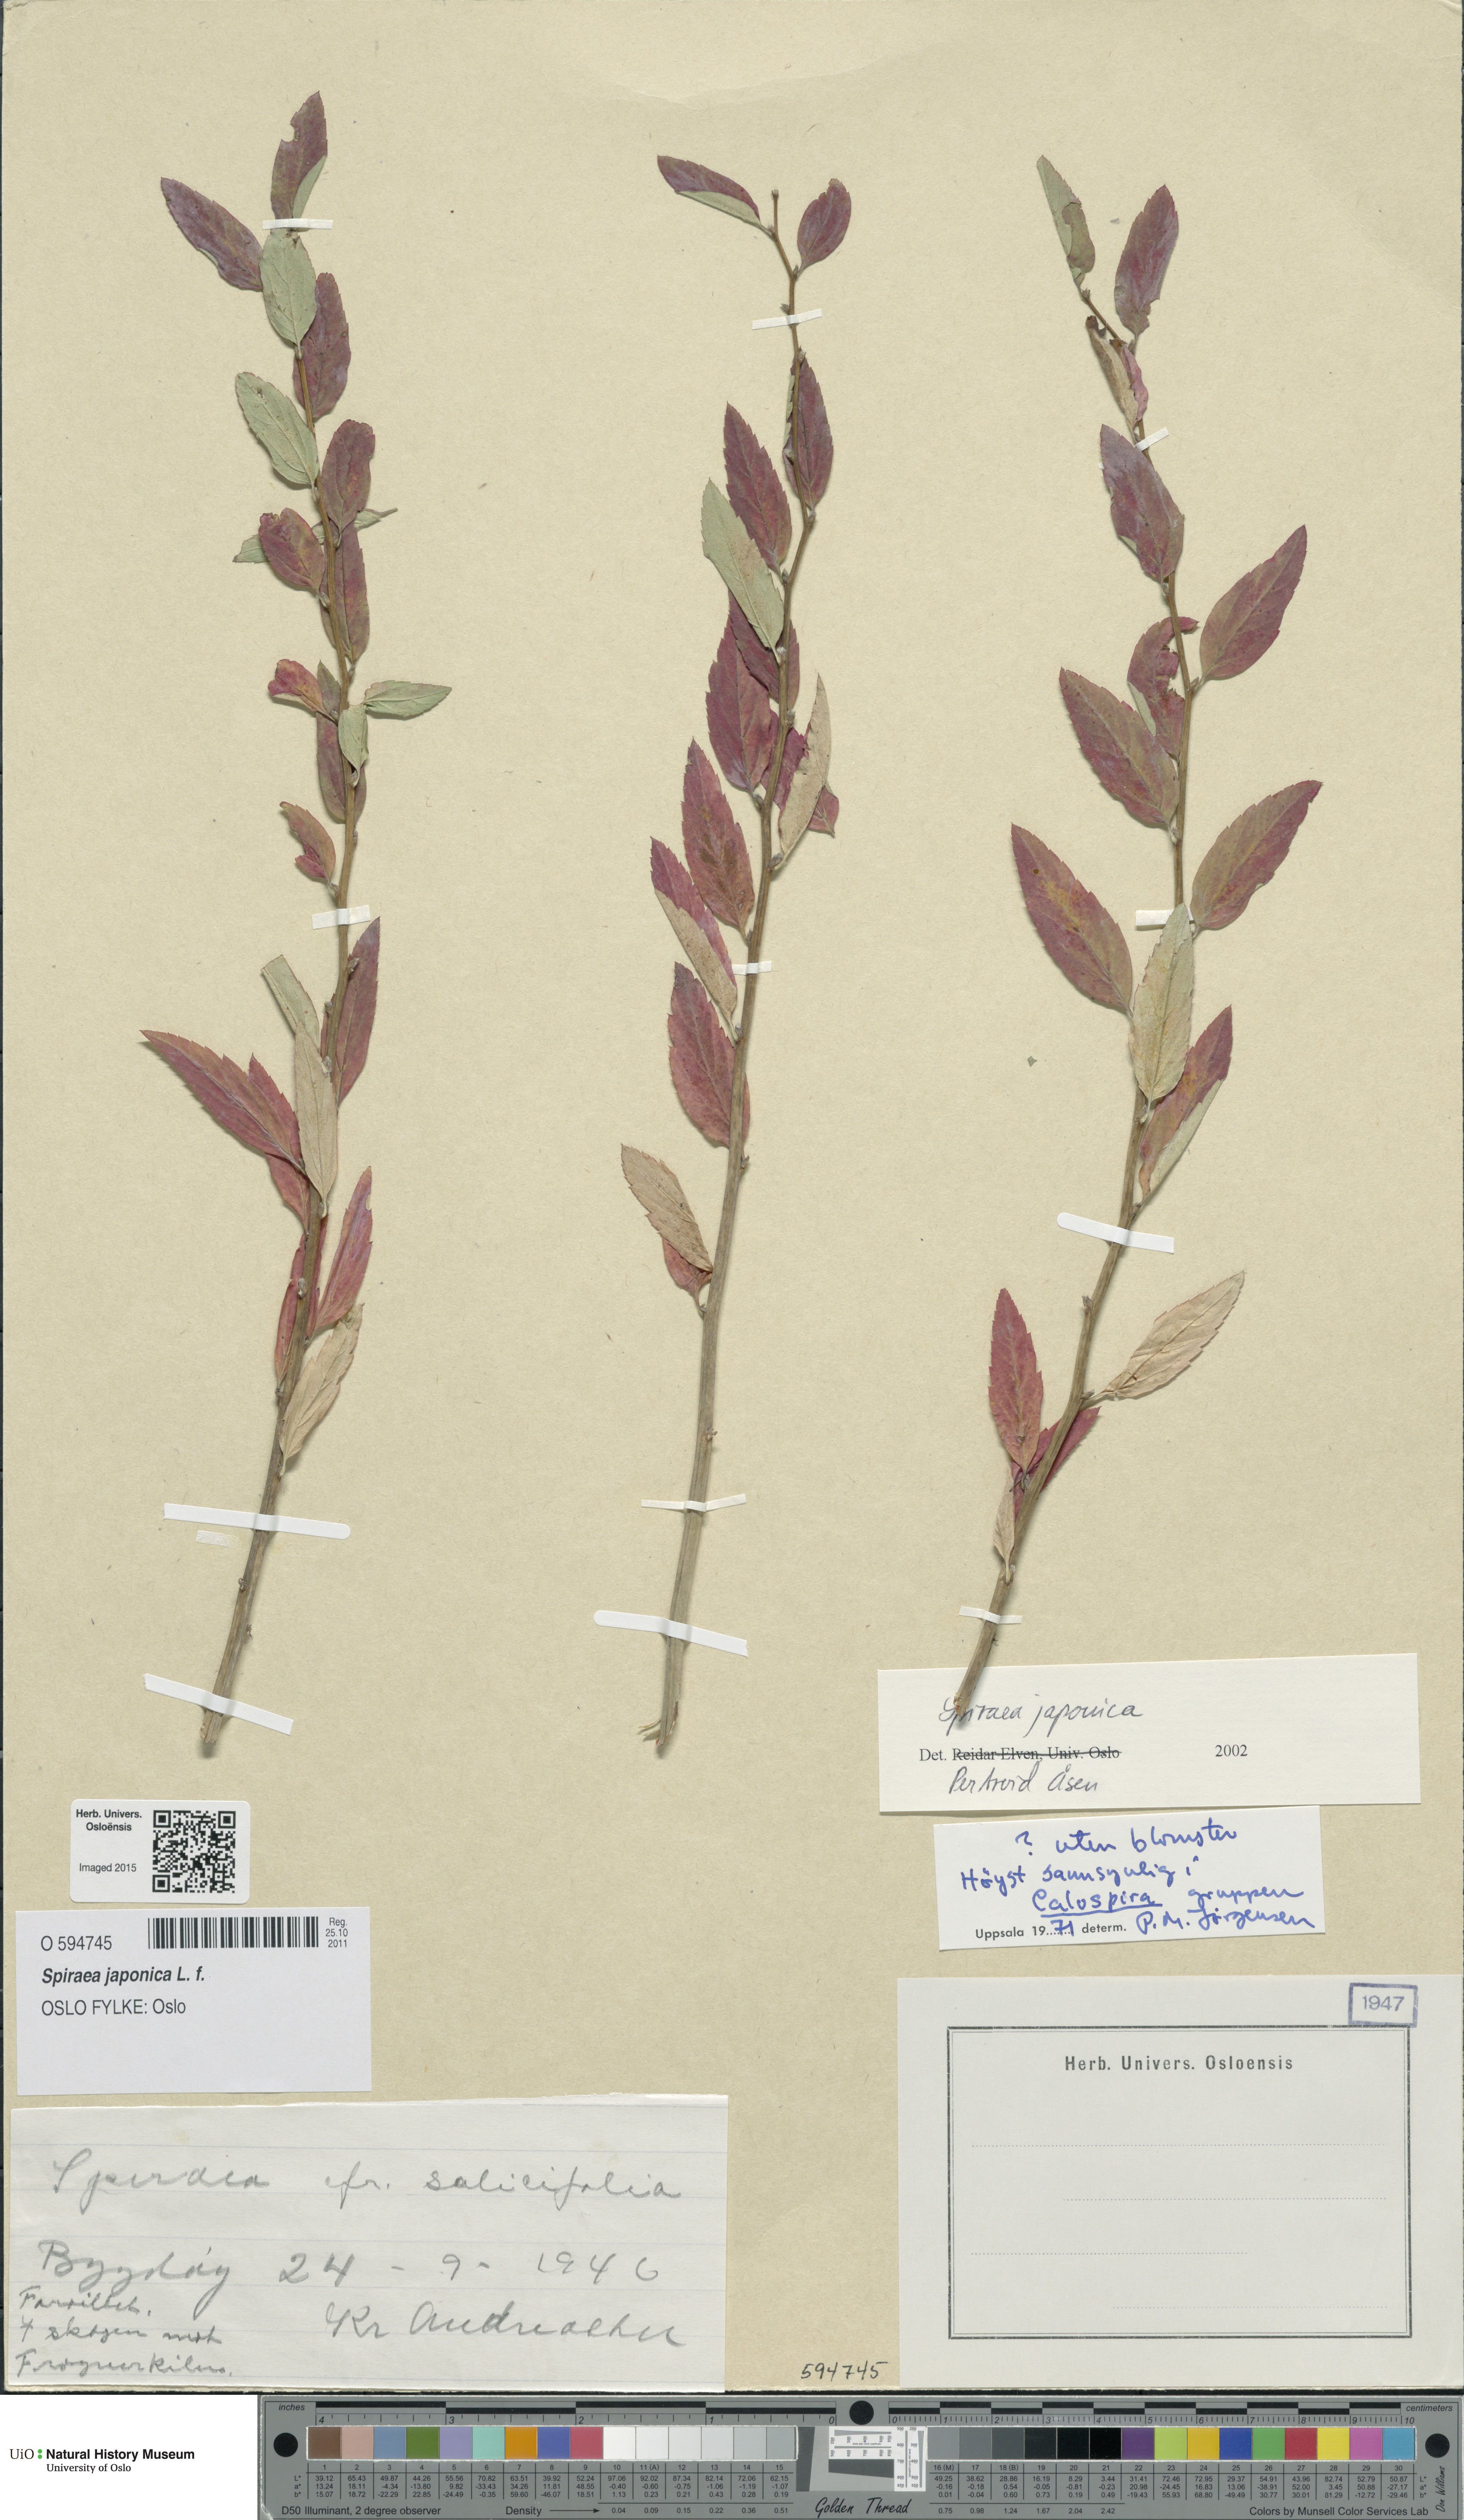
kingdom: Plantae
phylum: Tracheophyta
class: Magnoliopsida
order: Rosales
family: Rosaceae
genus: Spiraea
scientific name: Spiraea japonica
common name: Japanese spiraea
